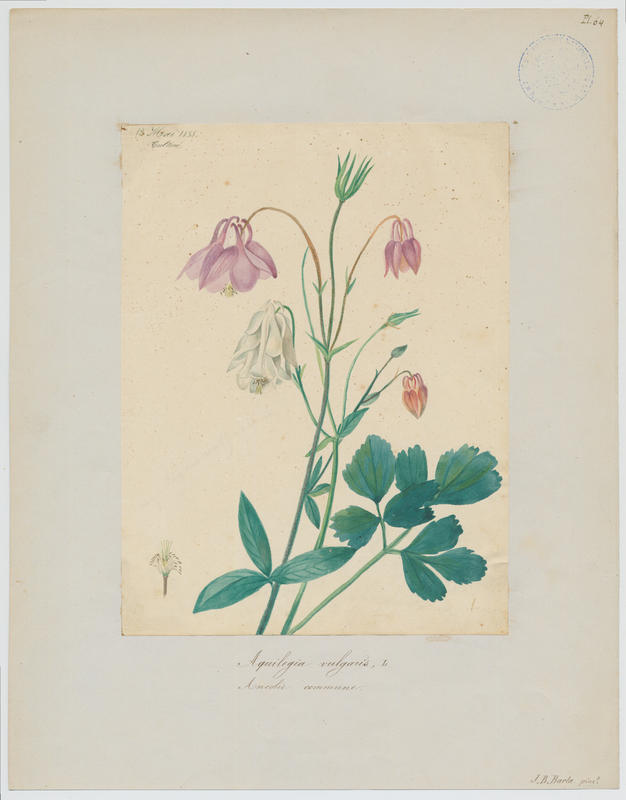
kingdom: Plantae
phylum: Tracheophyta
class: Magnoliopsida
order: Ranunculales
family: Ranunculaceae
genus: Aquilegia
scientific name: Aquilegia vulgaris
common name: Columbine
